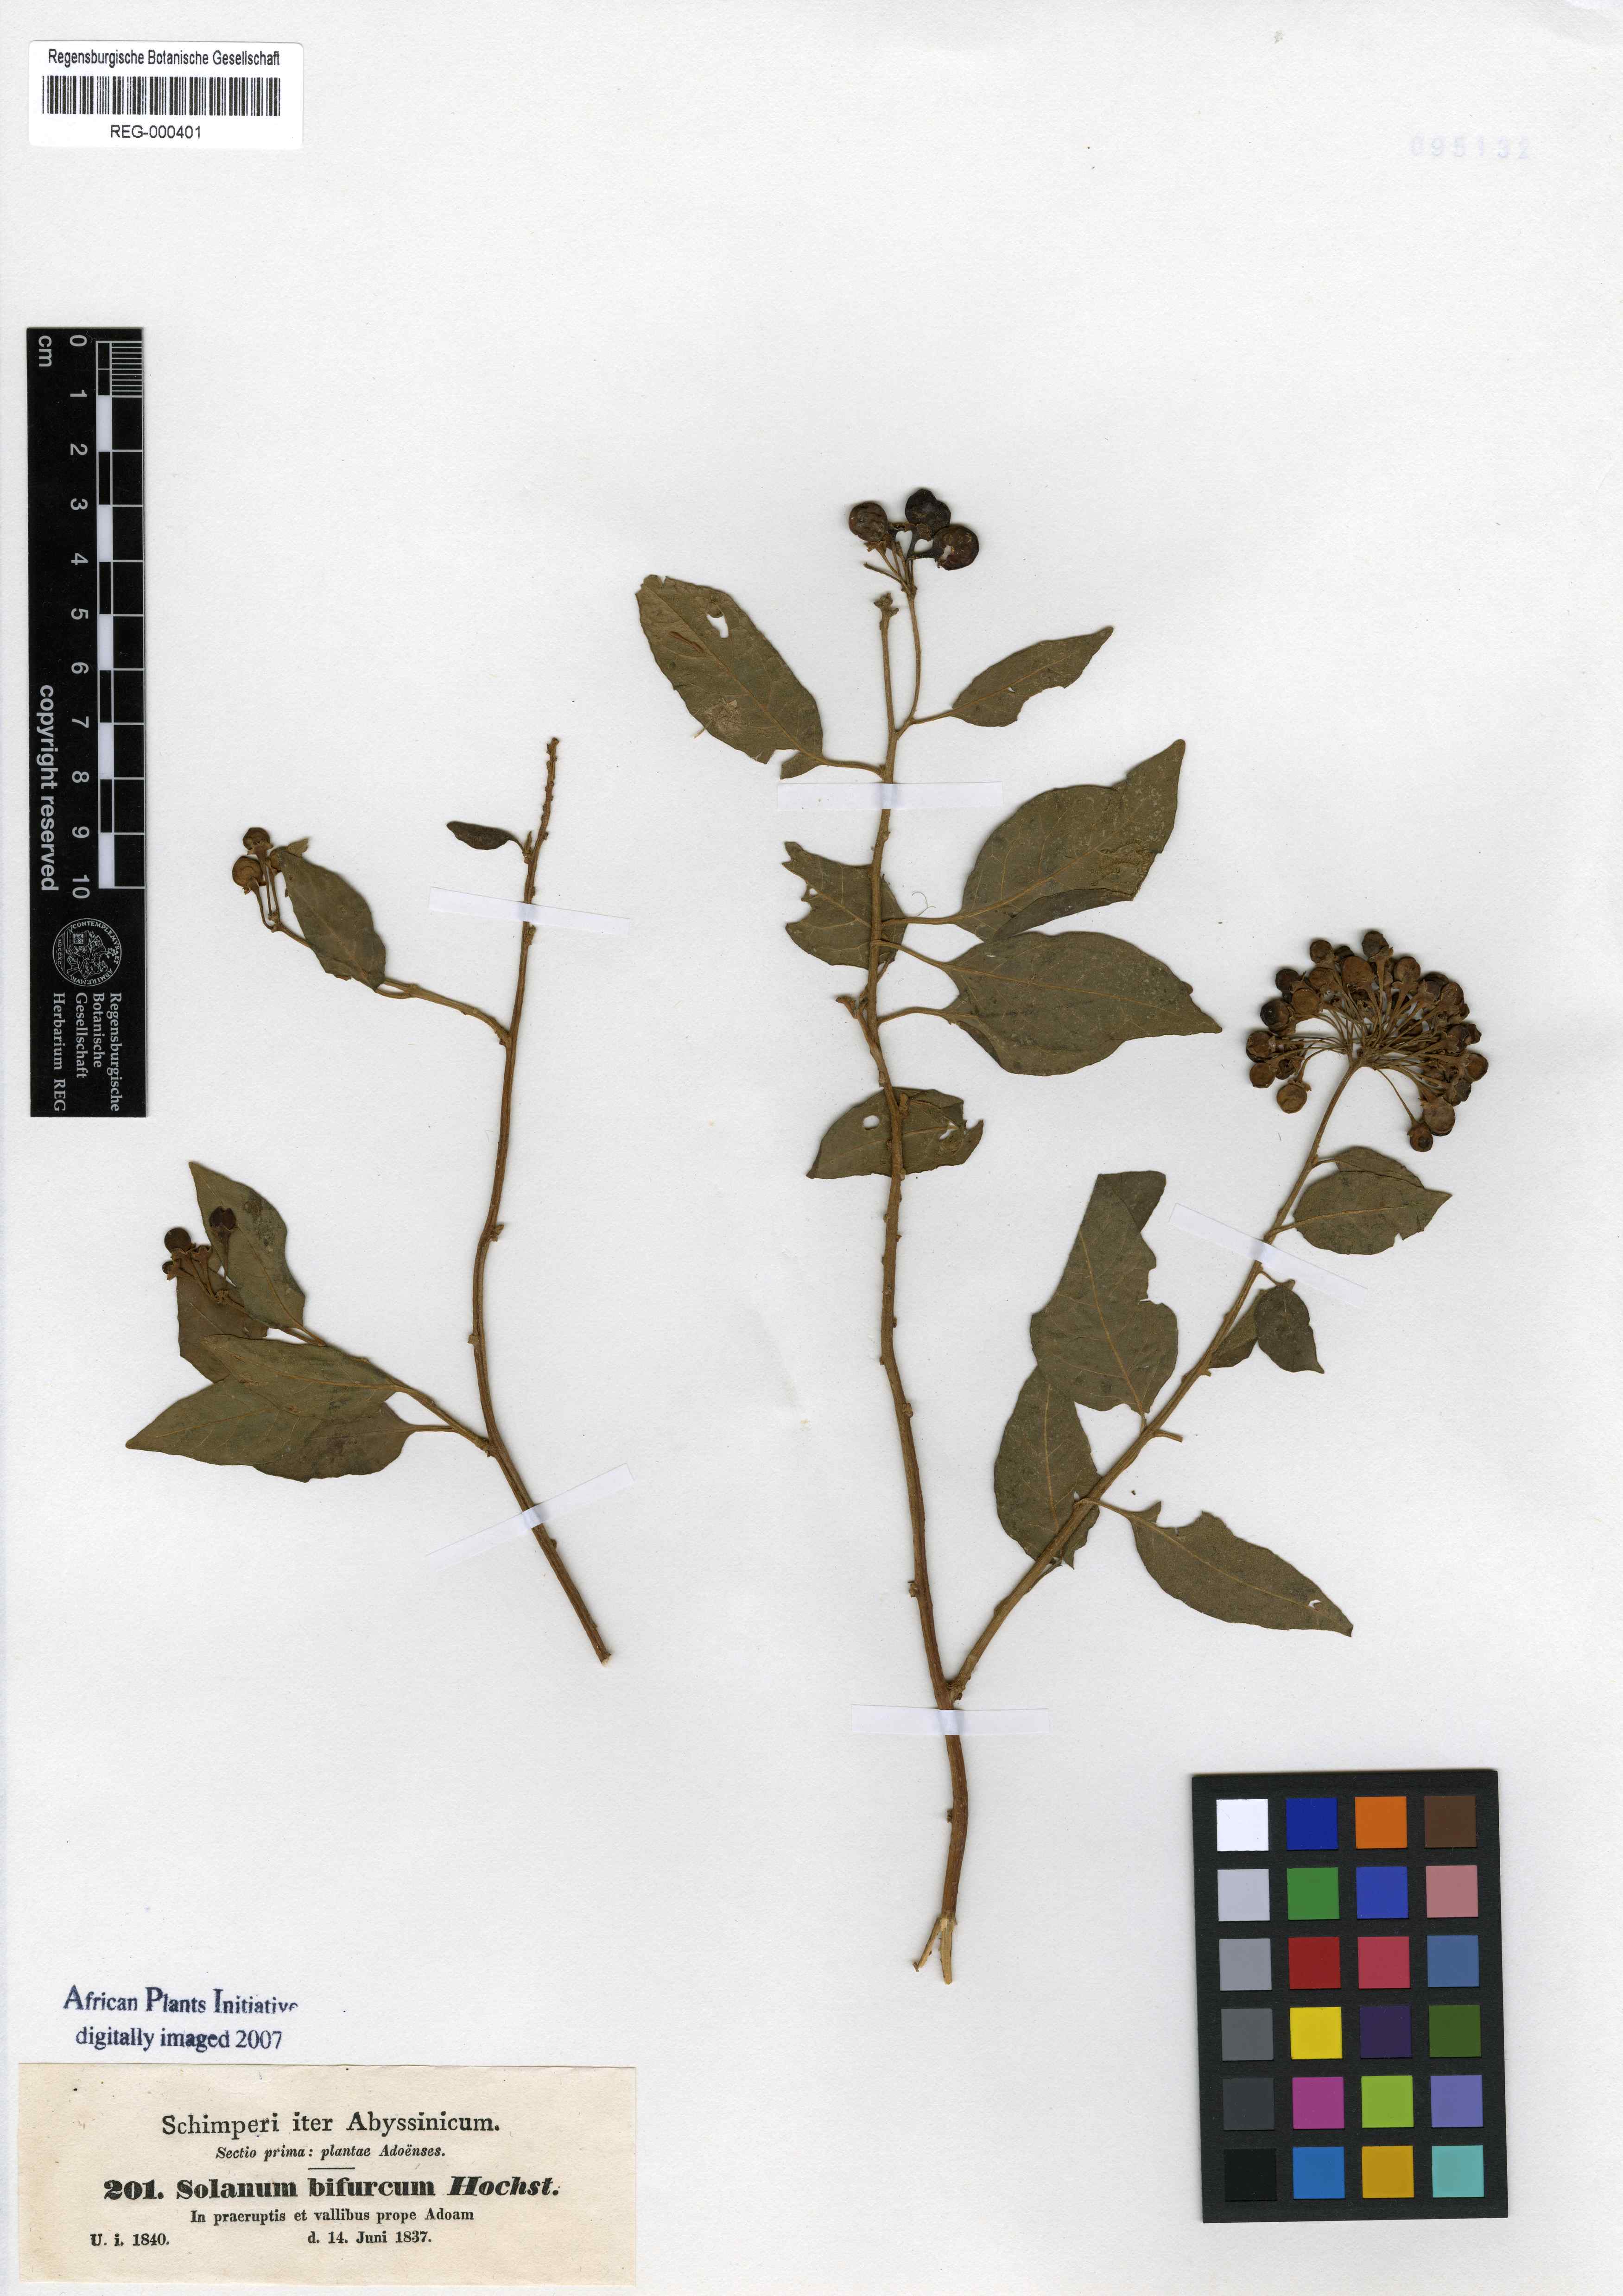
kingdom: Plantae
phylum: Tracheophyta
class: Magnoliopsida
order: Solanales
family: Solanaceae
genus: Solanum
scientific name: Solanum terminale
